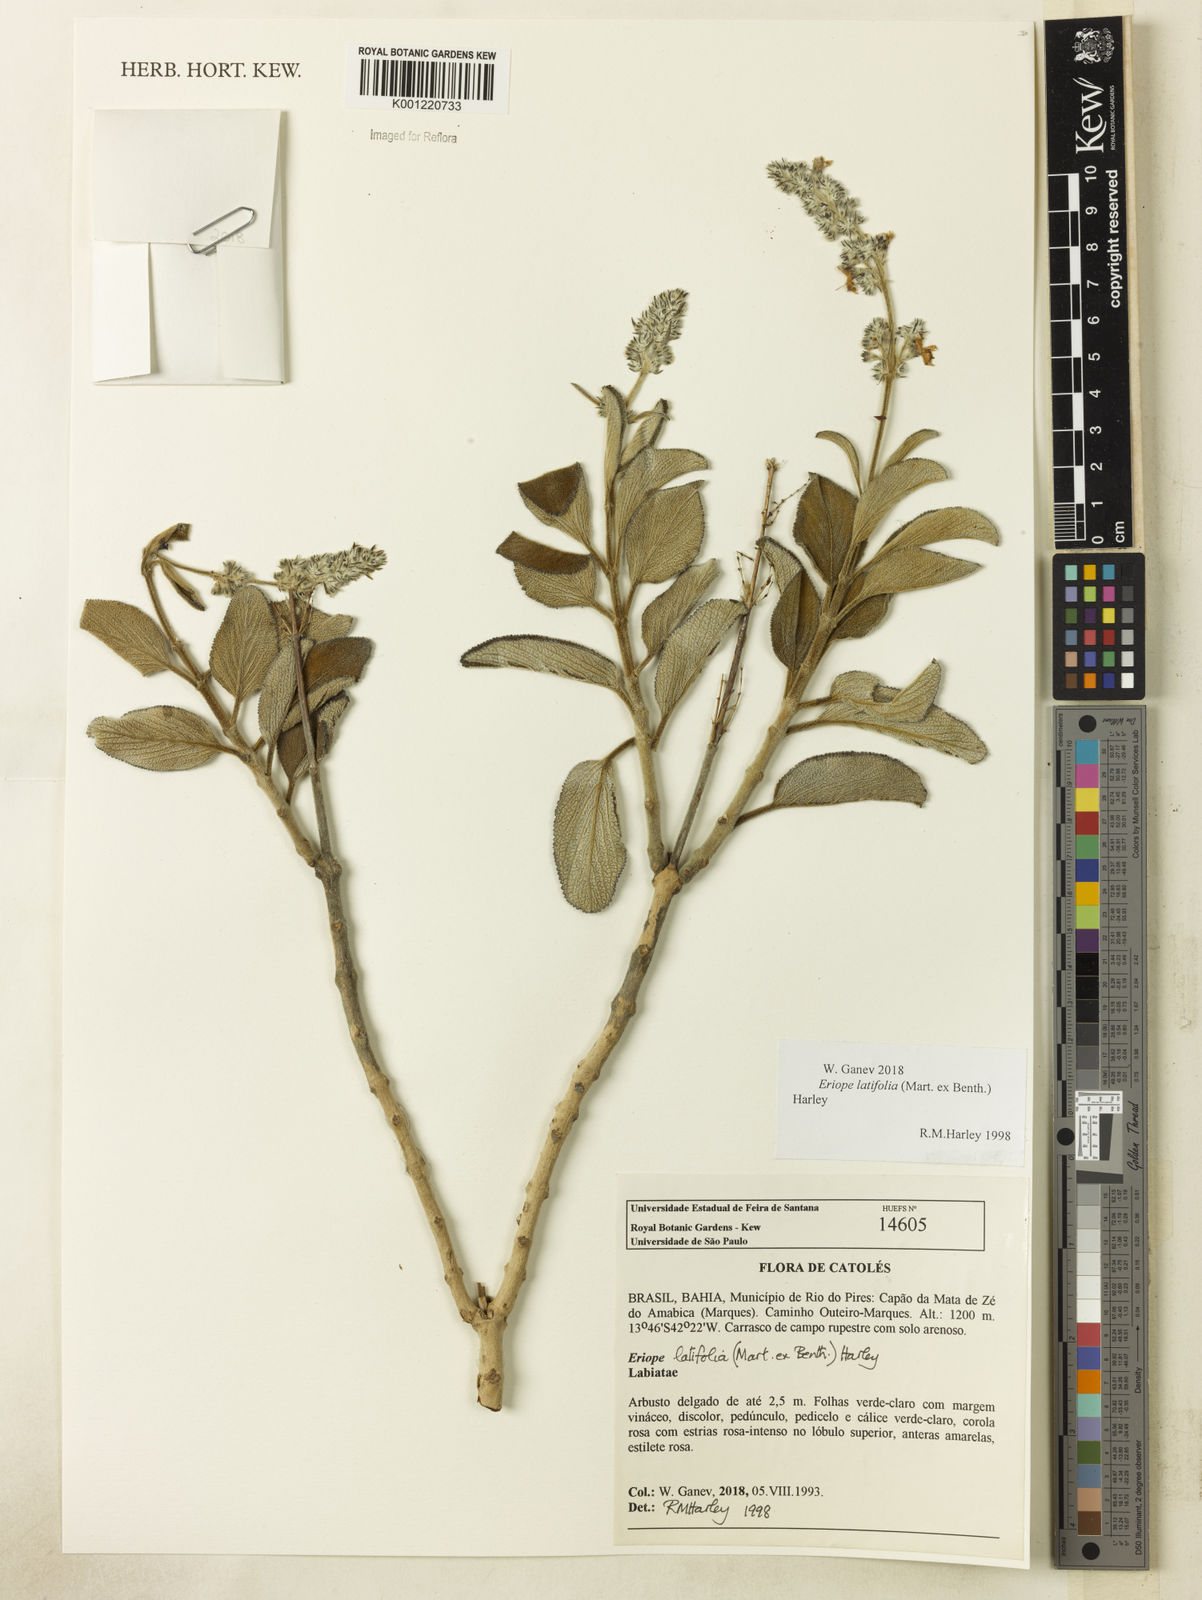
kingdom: Plantae
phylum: Tracheophyta
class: Magnoliopsida
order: Lamiales
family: Lamiaceae
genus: Eriope
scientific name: Eriope latifolia
